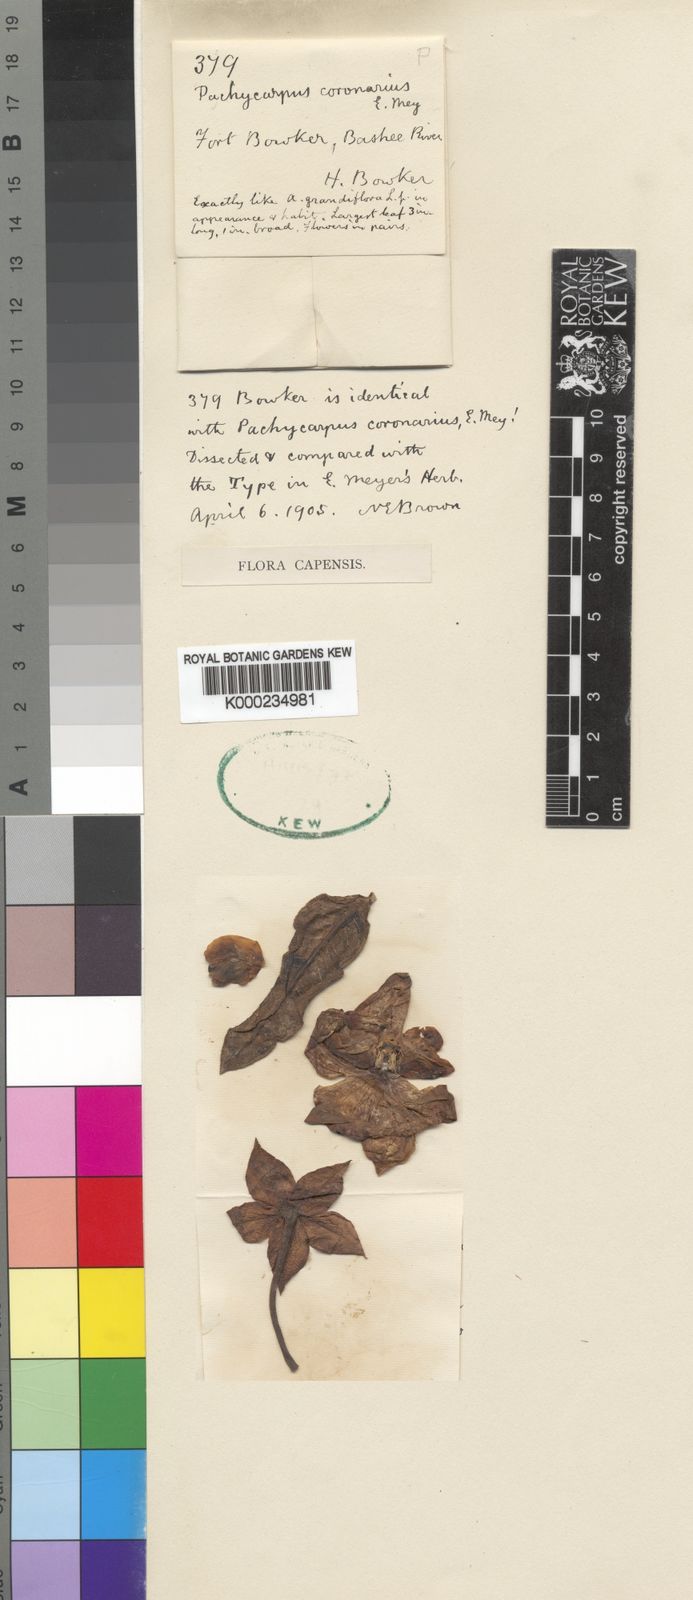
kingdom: Plantae
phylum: Tracheophyta
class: Magnoliopsida
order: Gentianales
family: Apocynaceae
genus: Pachycarpus
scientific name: Pachycarpus coronarius
